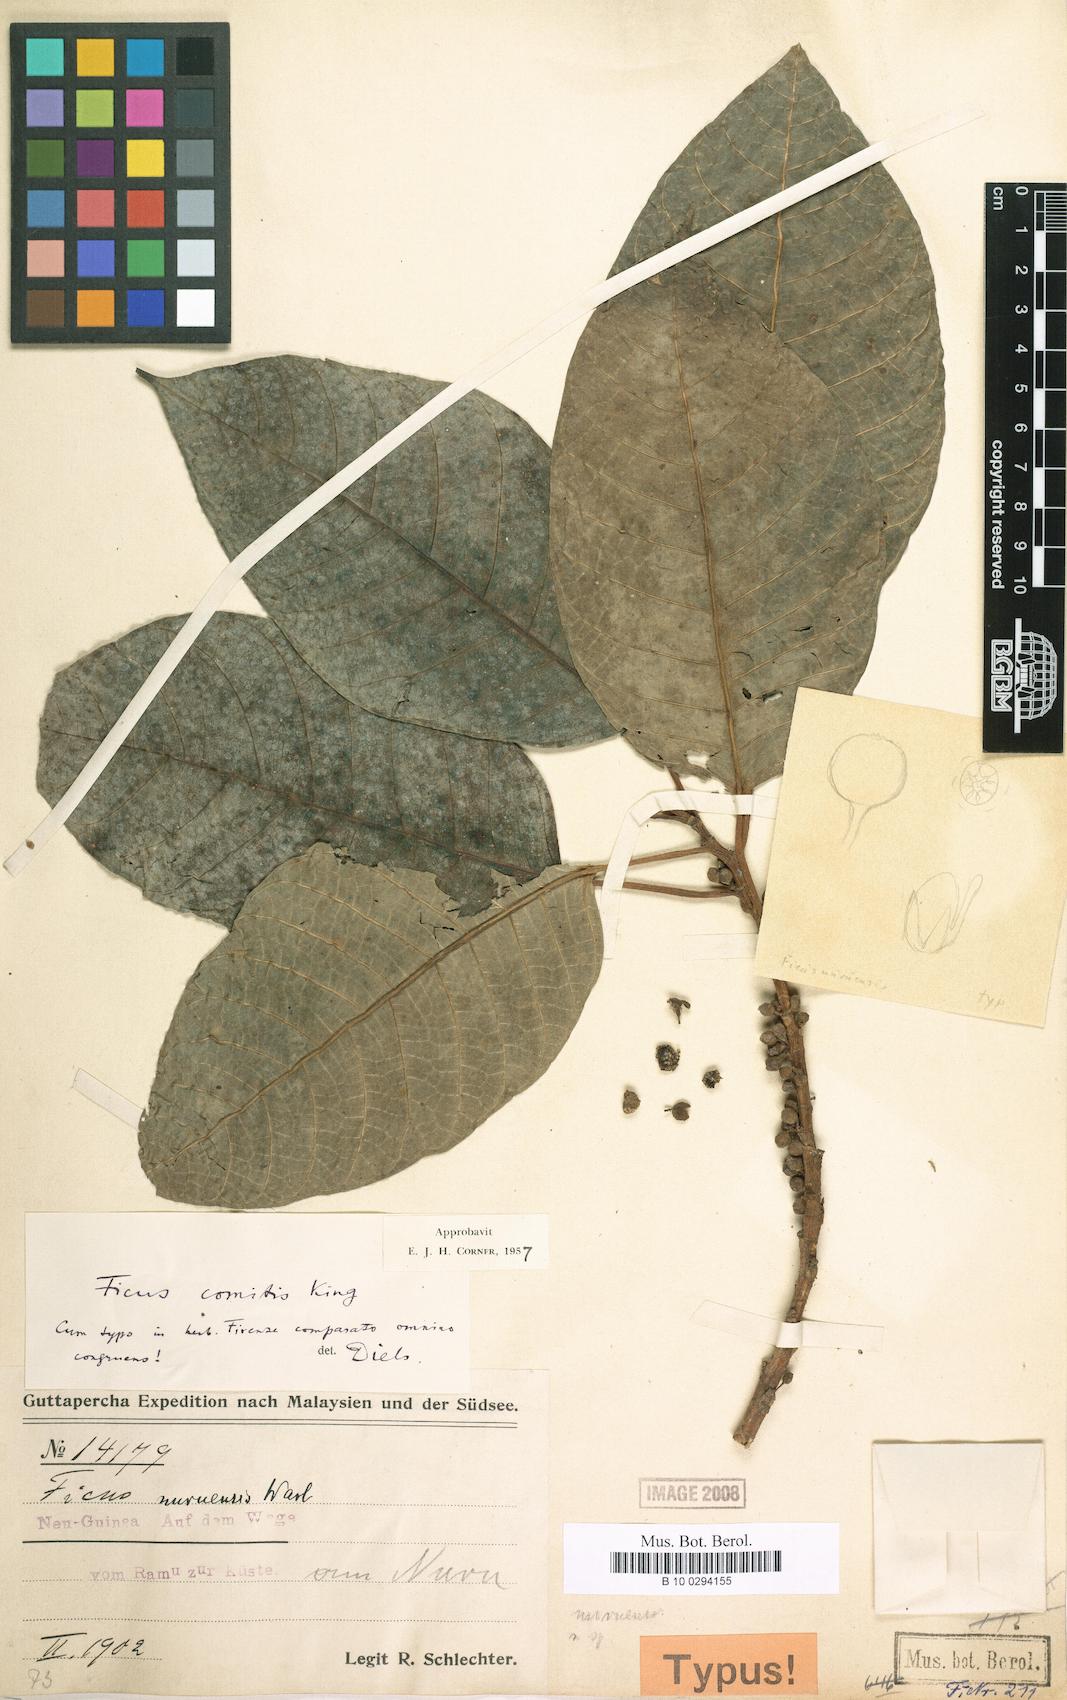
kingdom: Plantae
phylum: Tracheophyta
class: Magnoliopsida
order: Rosales
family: Moraceae
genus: Ficus
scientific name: Ficus comitis
